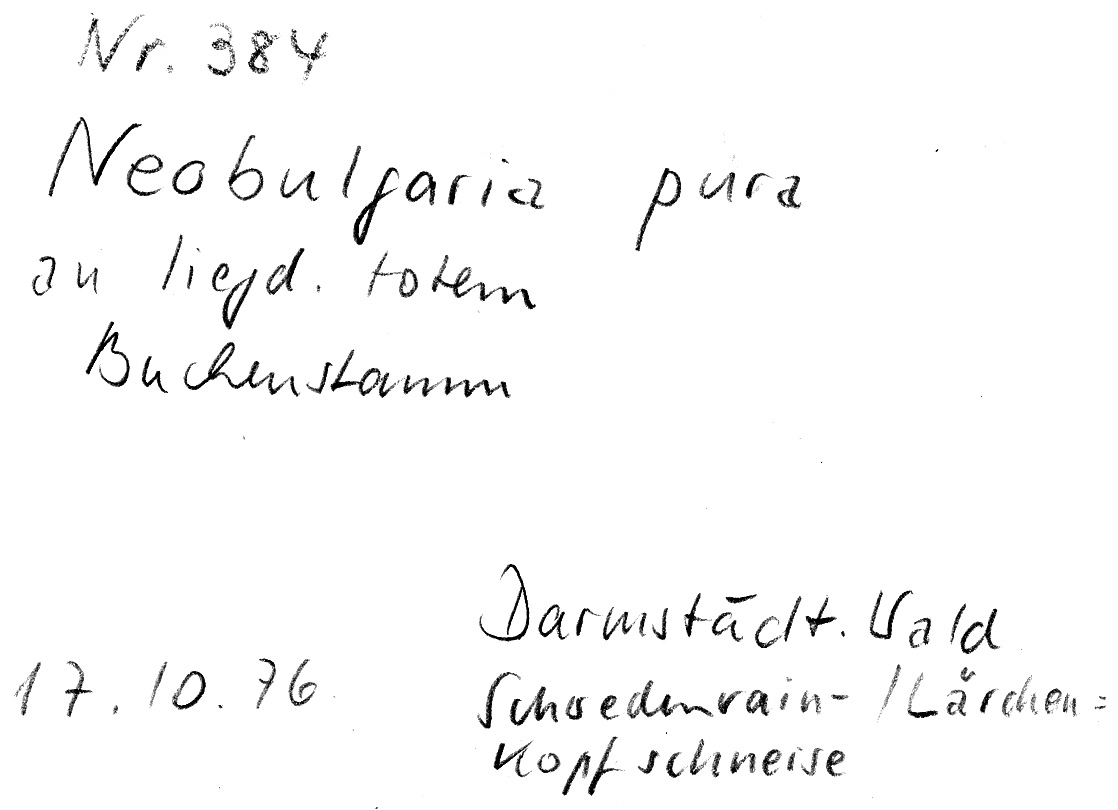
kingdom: Plantae
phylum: Tracheophyta
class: Magnoliopsida
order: Fagales
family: Fagaceae
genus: Fagus
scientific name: Fagus sylvatica
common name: Beech
